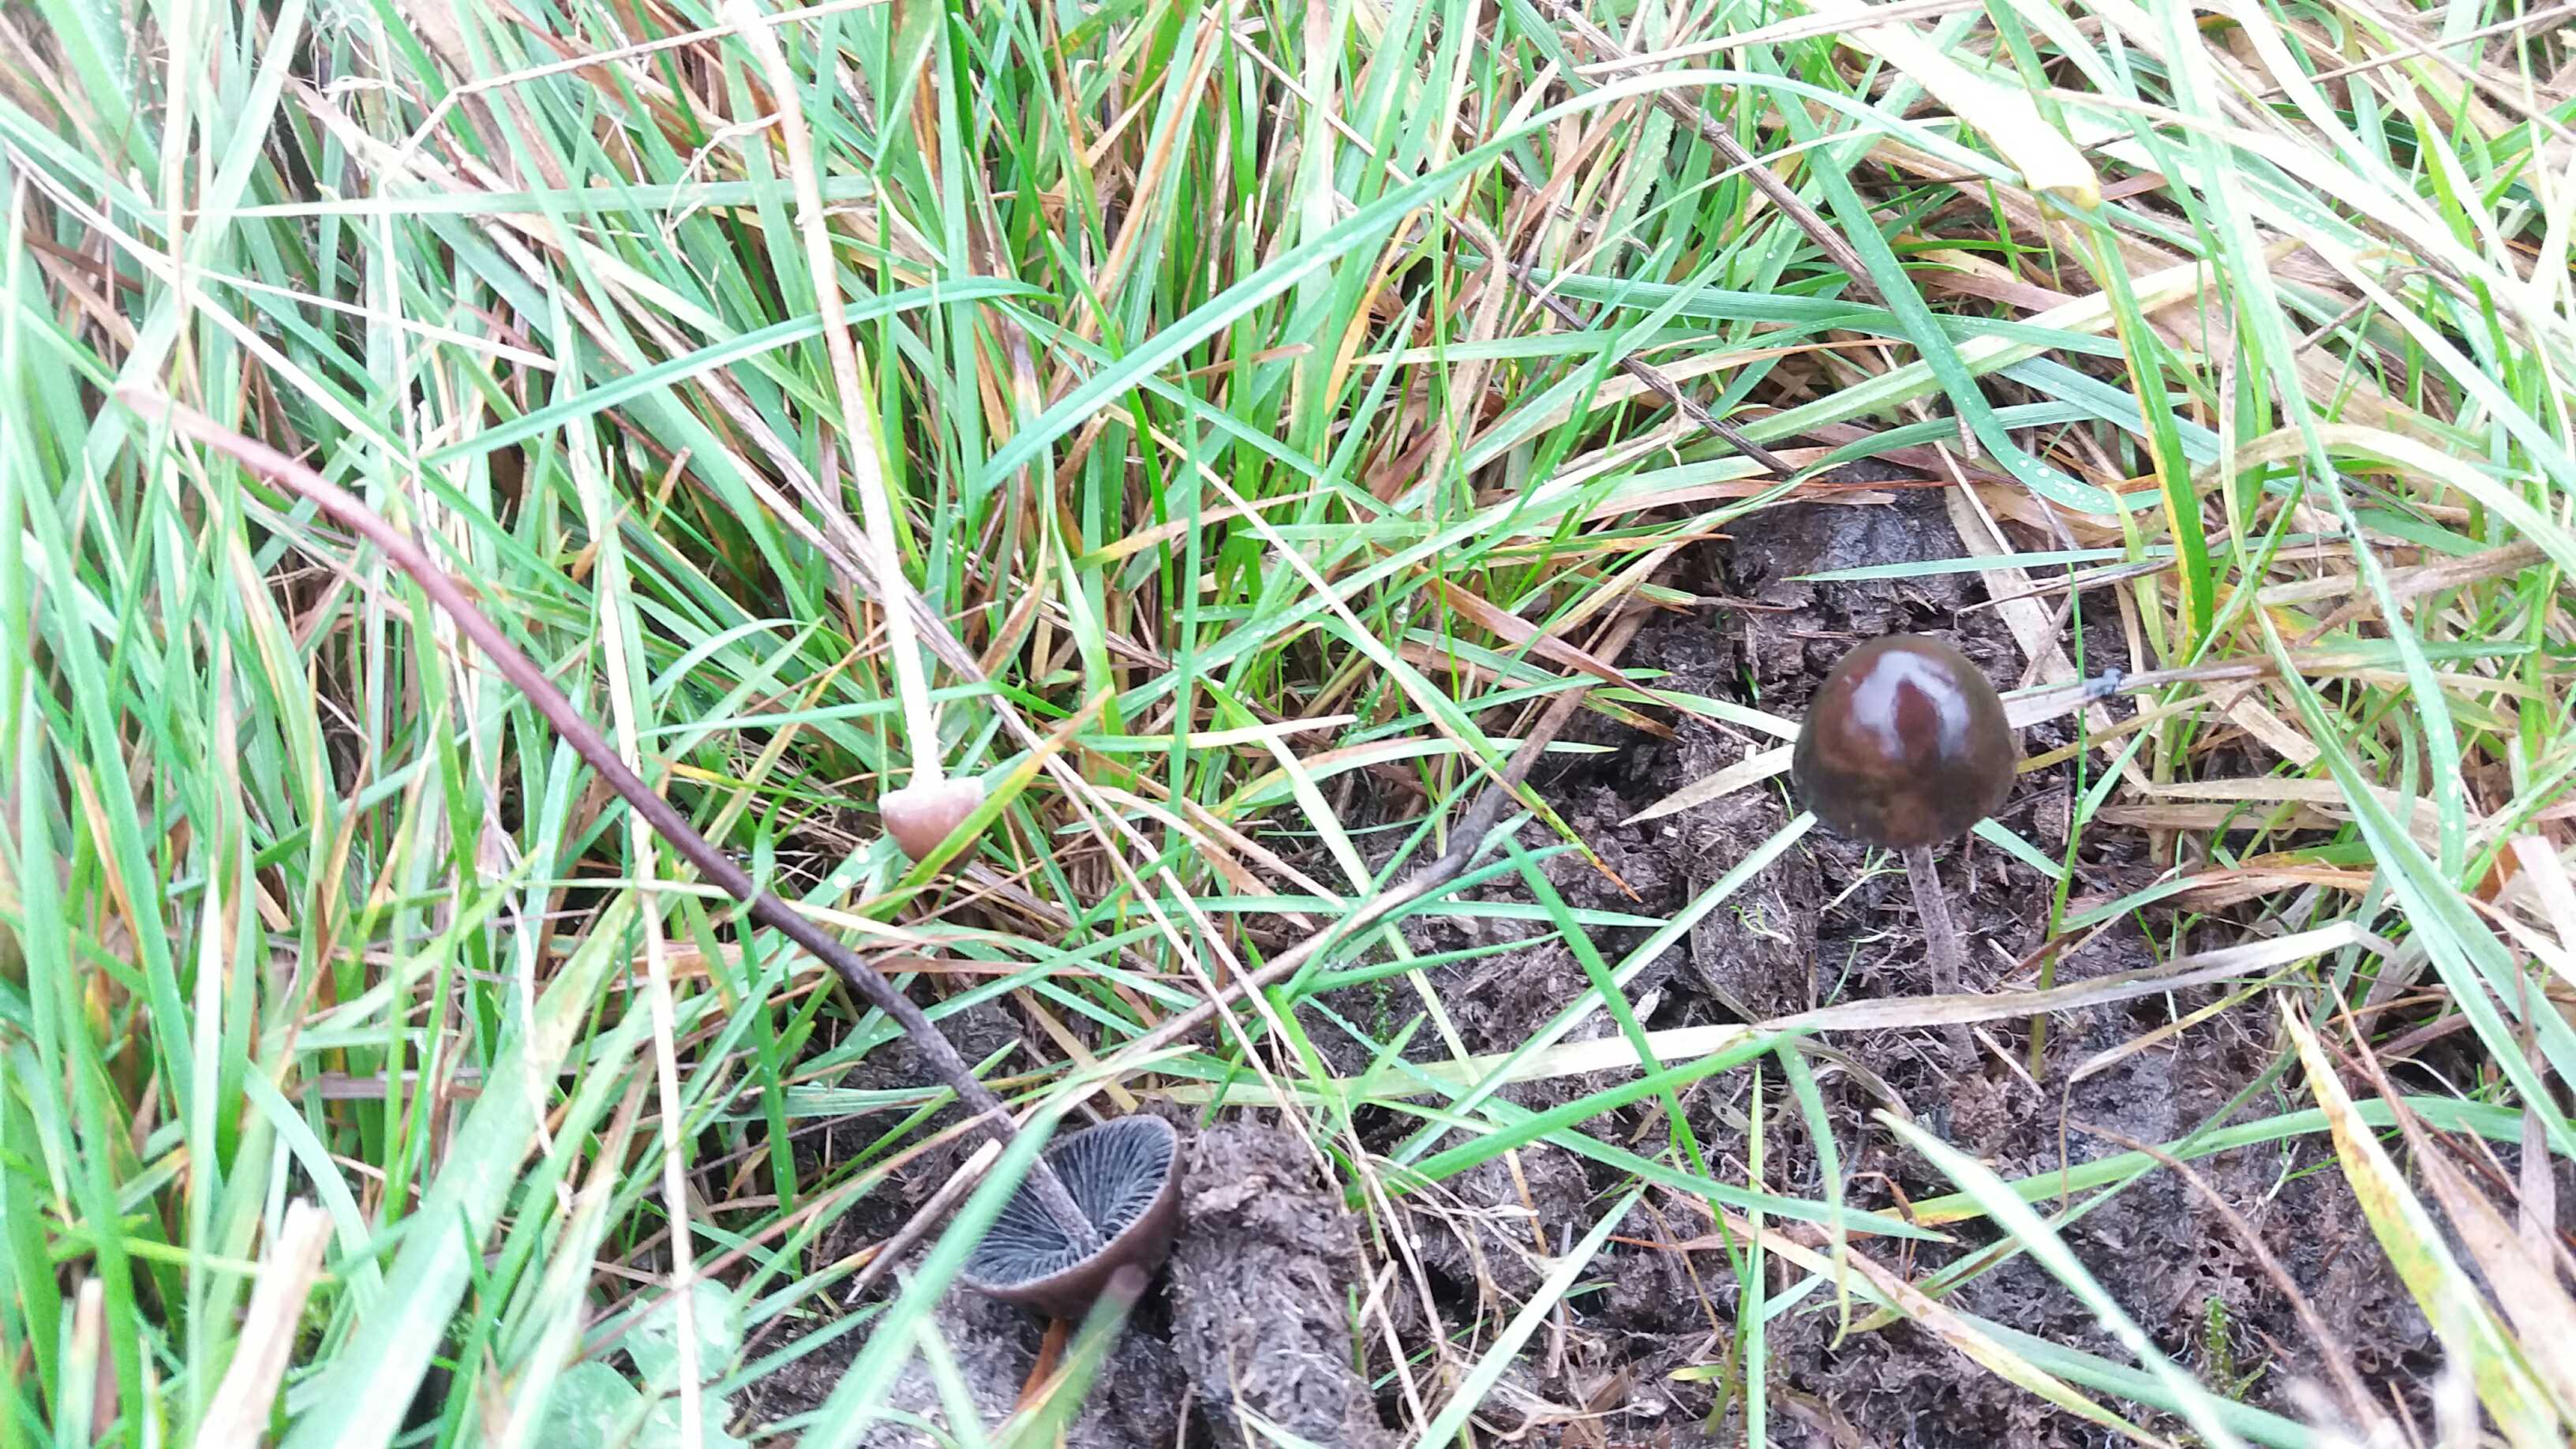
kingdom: Fungi
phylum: Basidiomycota
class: Agaricomycetes
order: Agaricales
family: Bolbitiaceae
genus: Panaeolus
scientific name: Panaeolus acuminatus
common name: høj glanshat
